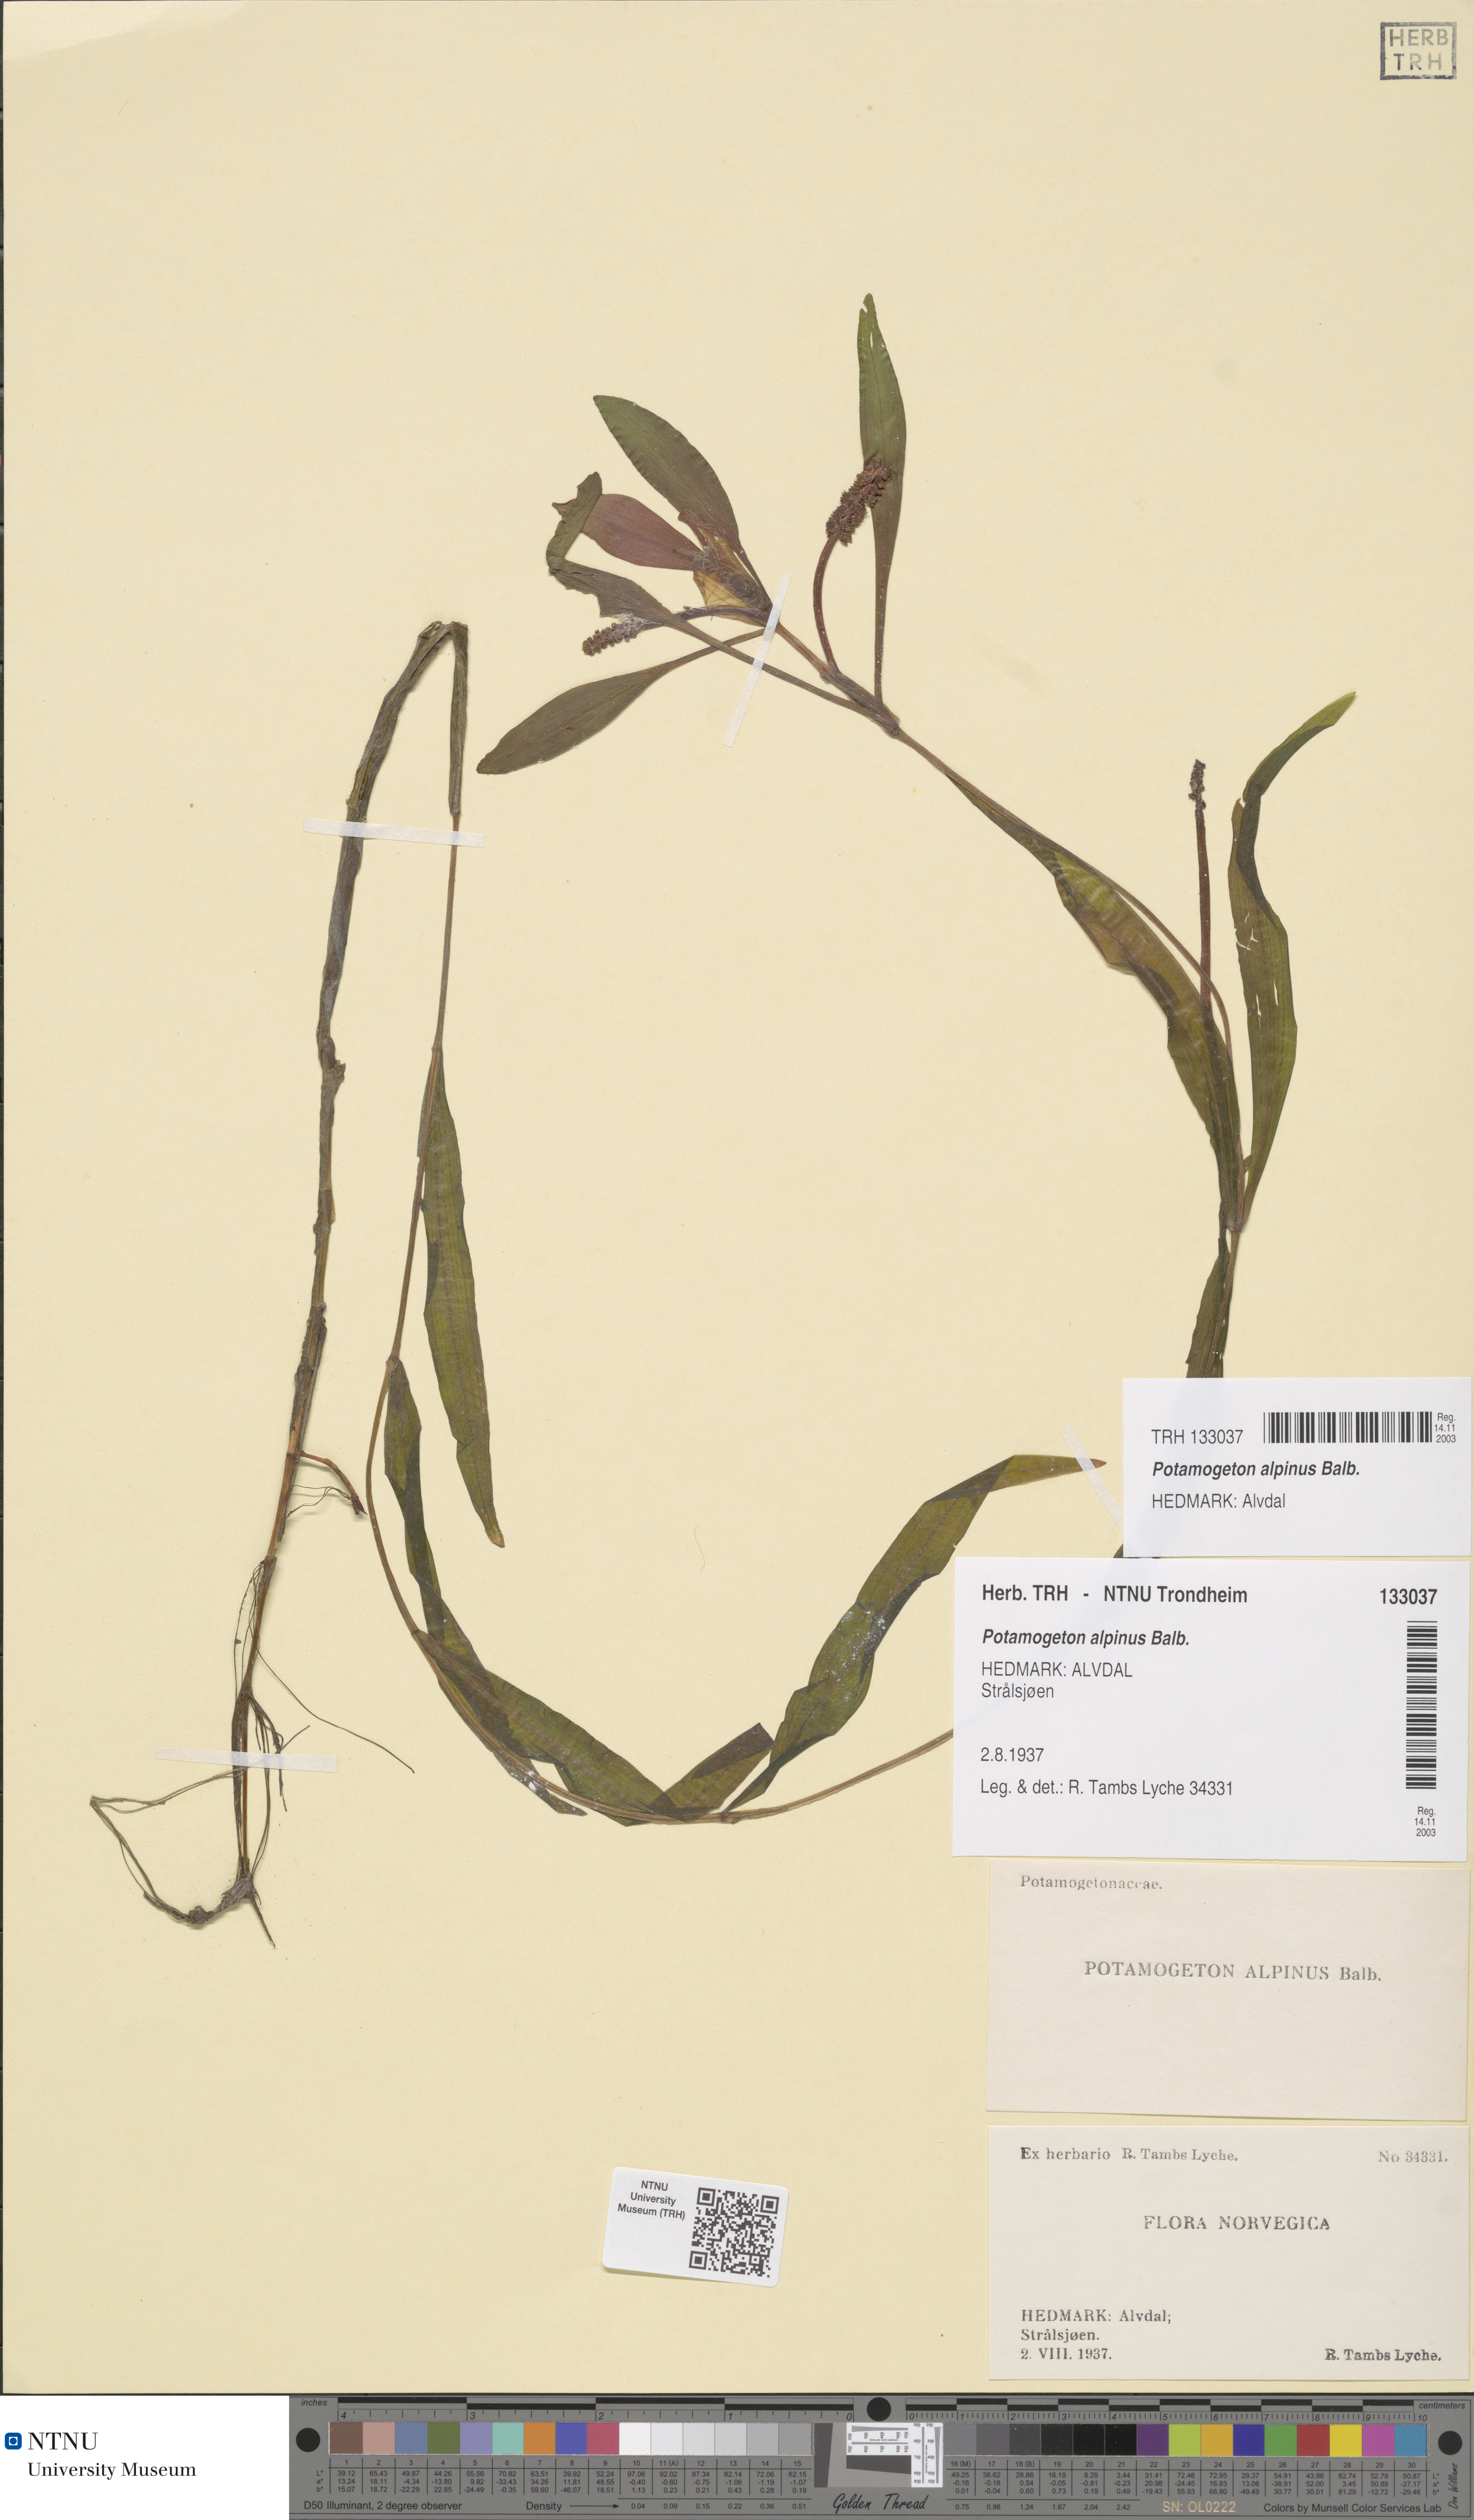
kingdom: Plantae
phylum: Tracheophyta
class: Liliopsida
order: Alismatales
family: Potamogetonaceae
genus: Potamogeton
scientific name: Potamogeton alpinus
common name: Red pondweed
